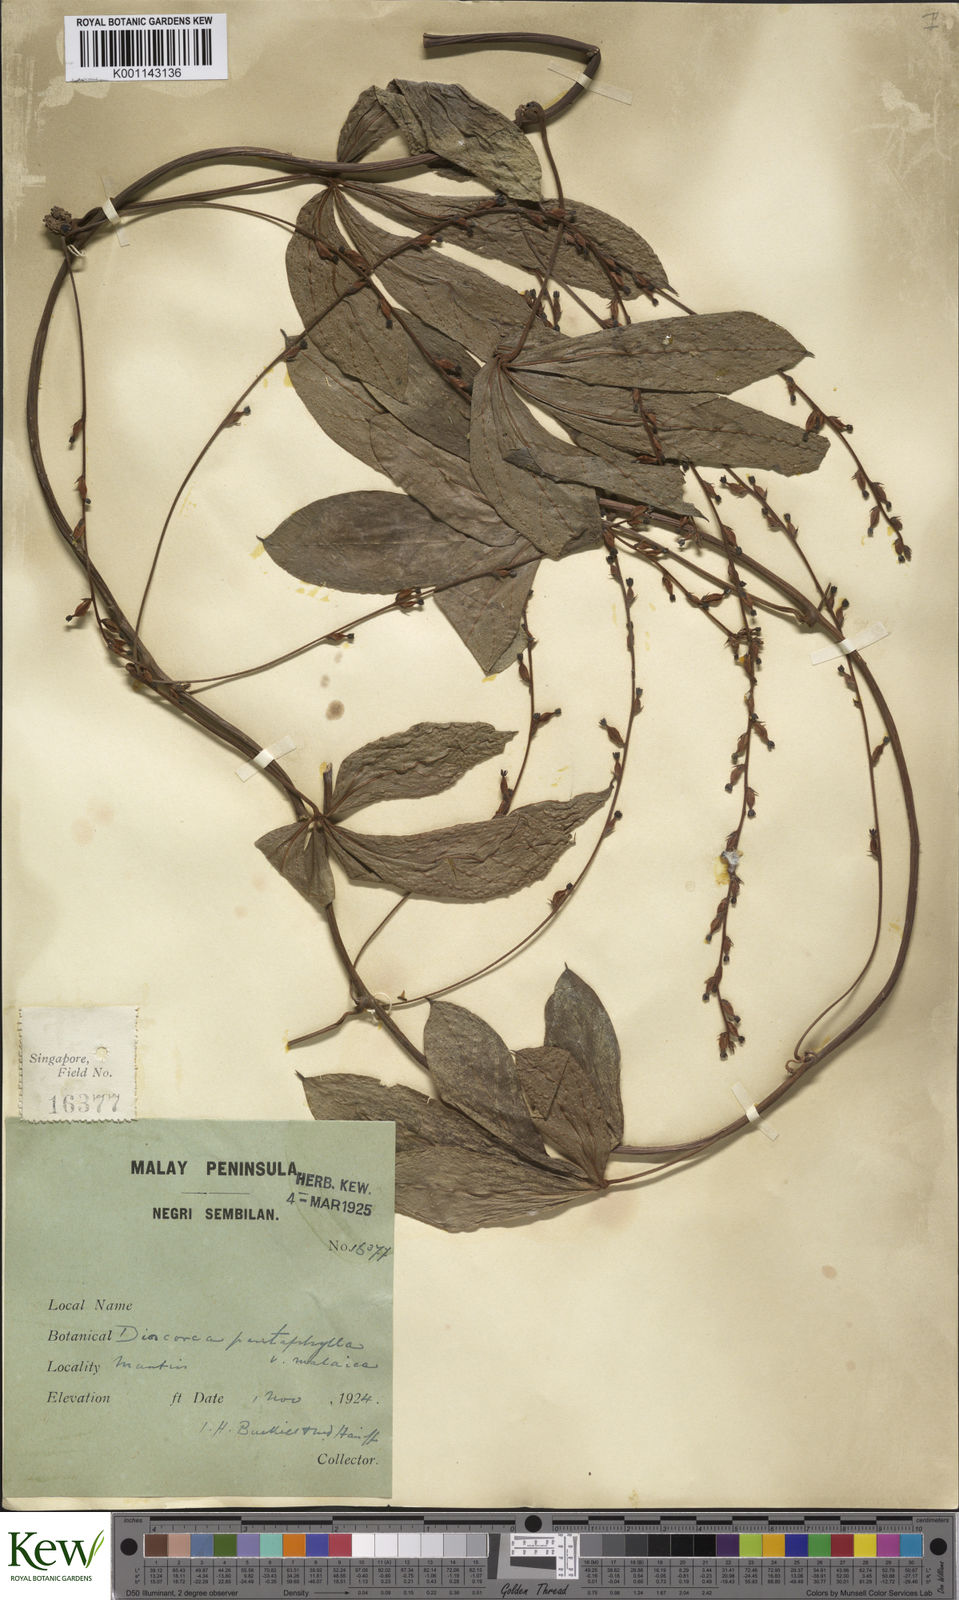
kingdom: Plantae
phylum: Tracheophyta
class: Liliopsida
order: Dioscoreales
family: Dioscoreaceae
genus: Dioscorea
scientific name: Dioscorea pentaphylla
